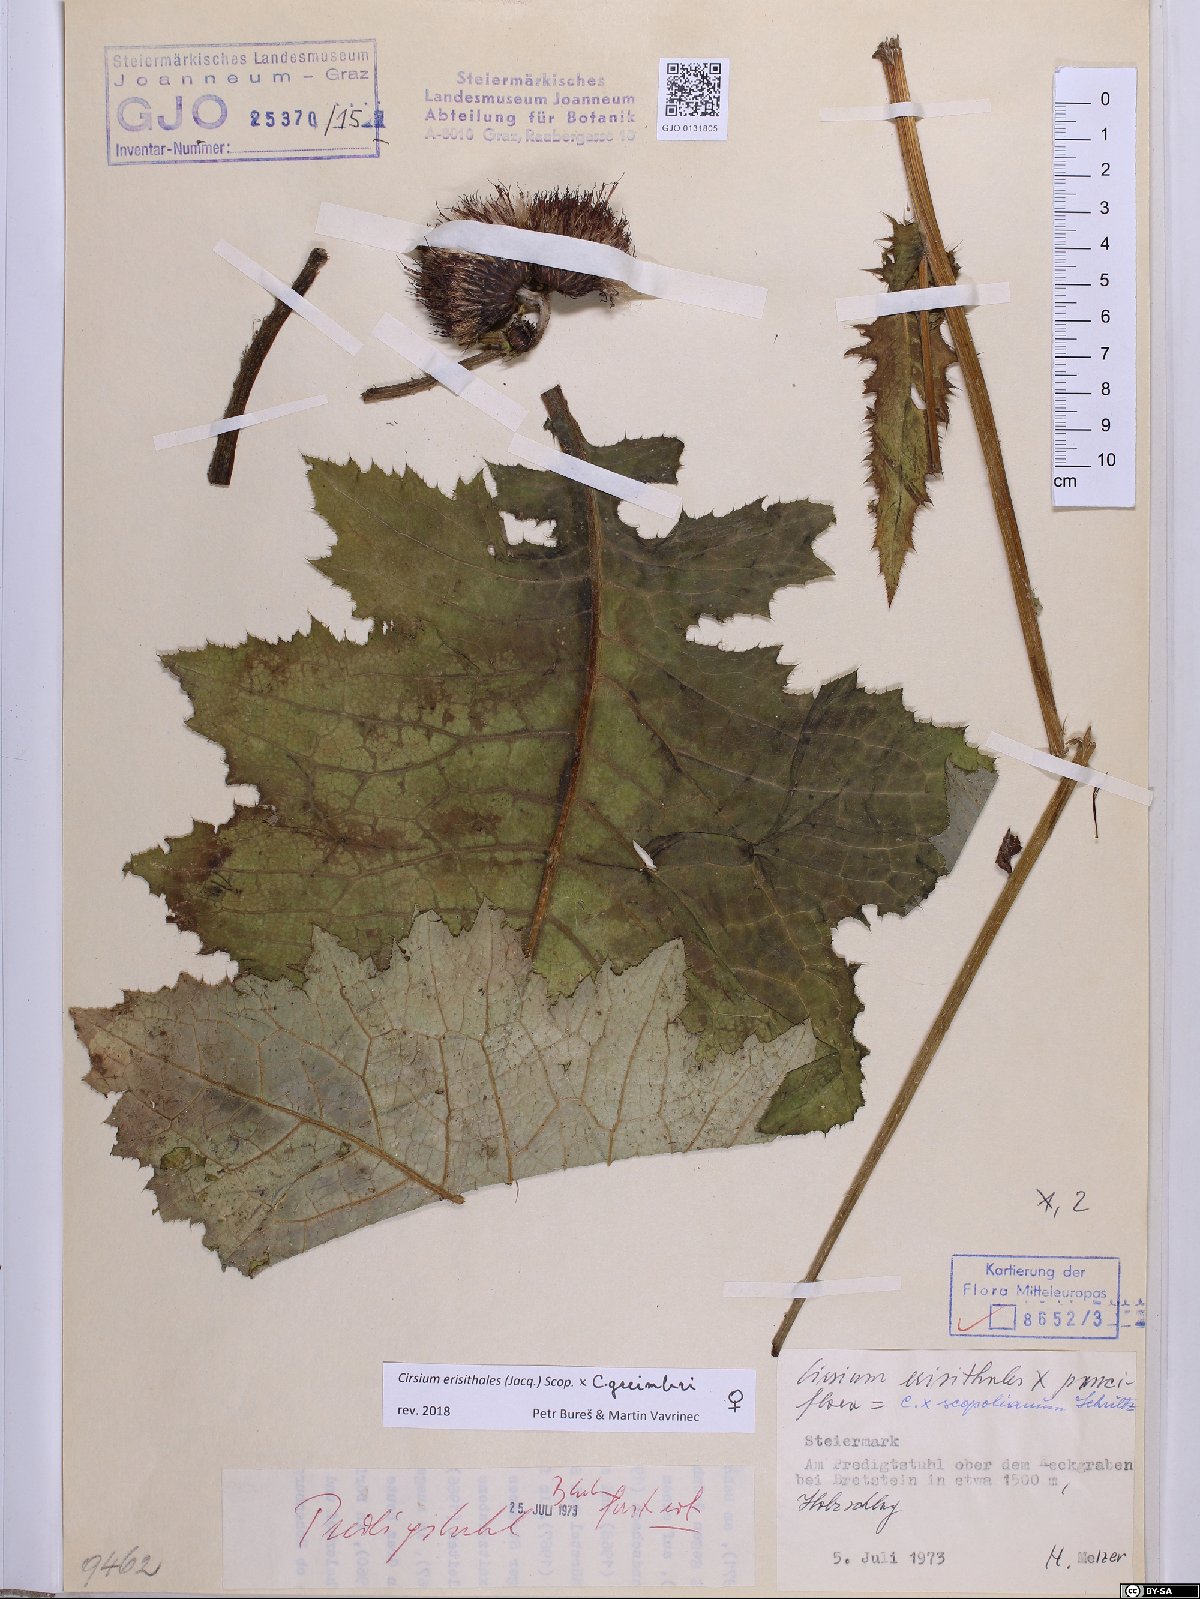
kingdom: Plantae
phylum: Tracheophyta
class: Magnoliopsida
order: Asterales
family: Asteraceae
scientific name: Asteraceae
